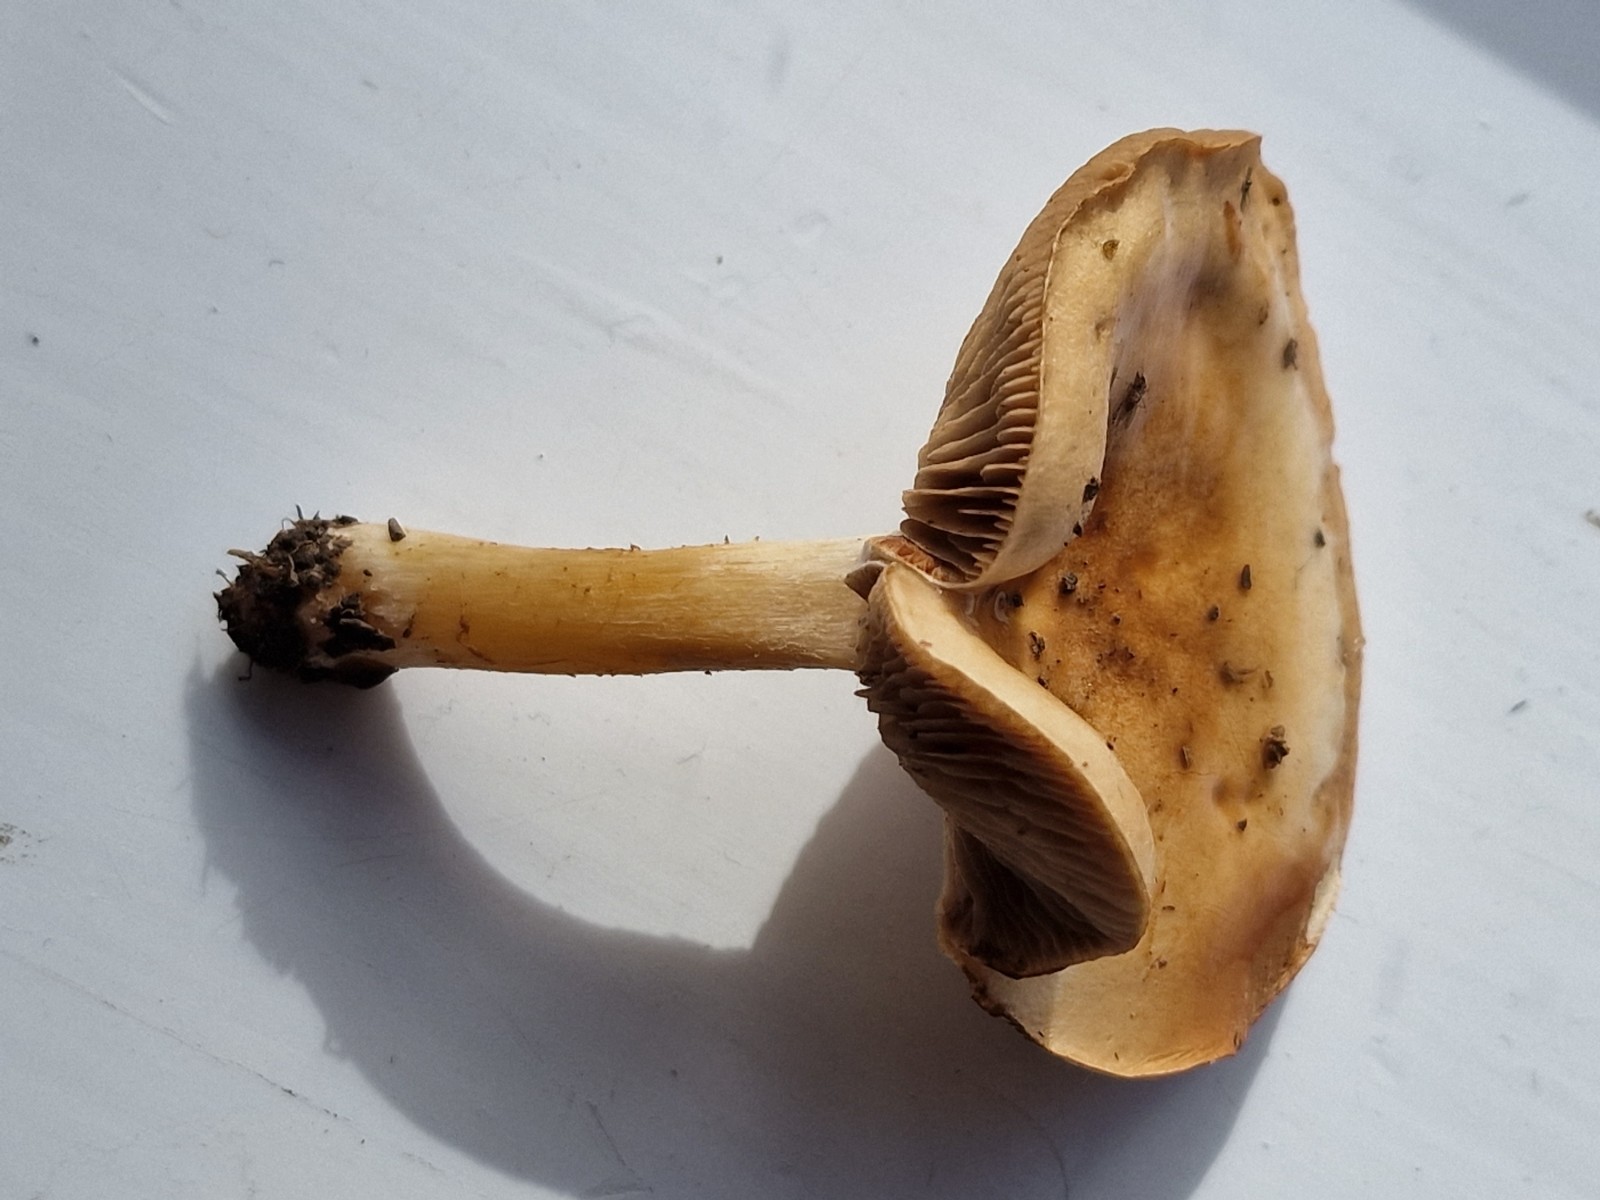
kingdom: Fungi
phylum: Basidiomycota
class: Agaricomycetes
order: Agaricales
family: Hymenogastraceae
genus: Hebeloma
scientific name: Hebeloma
